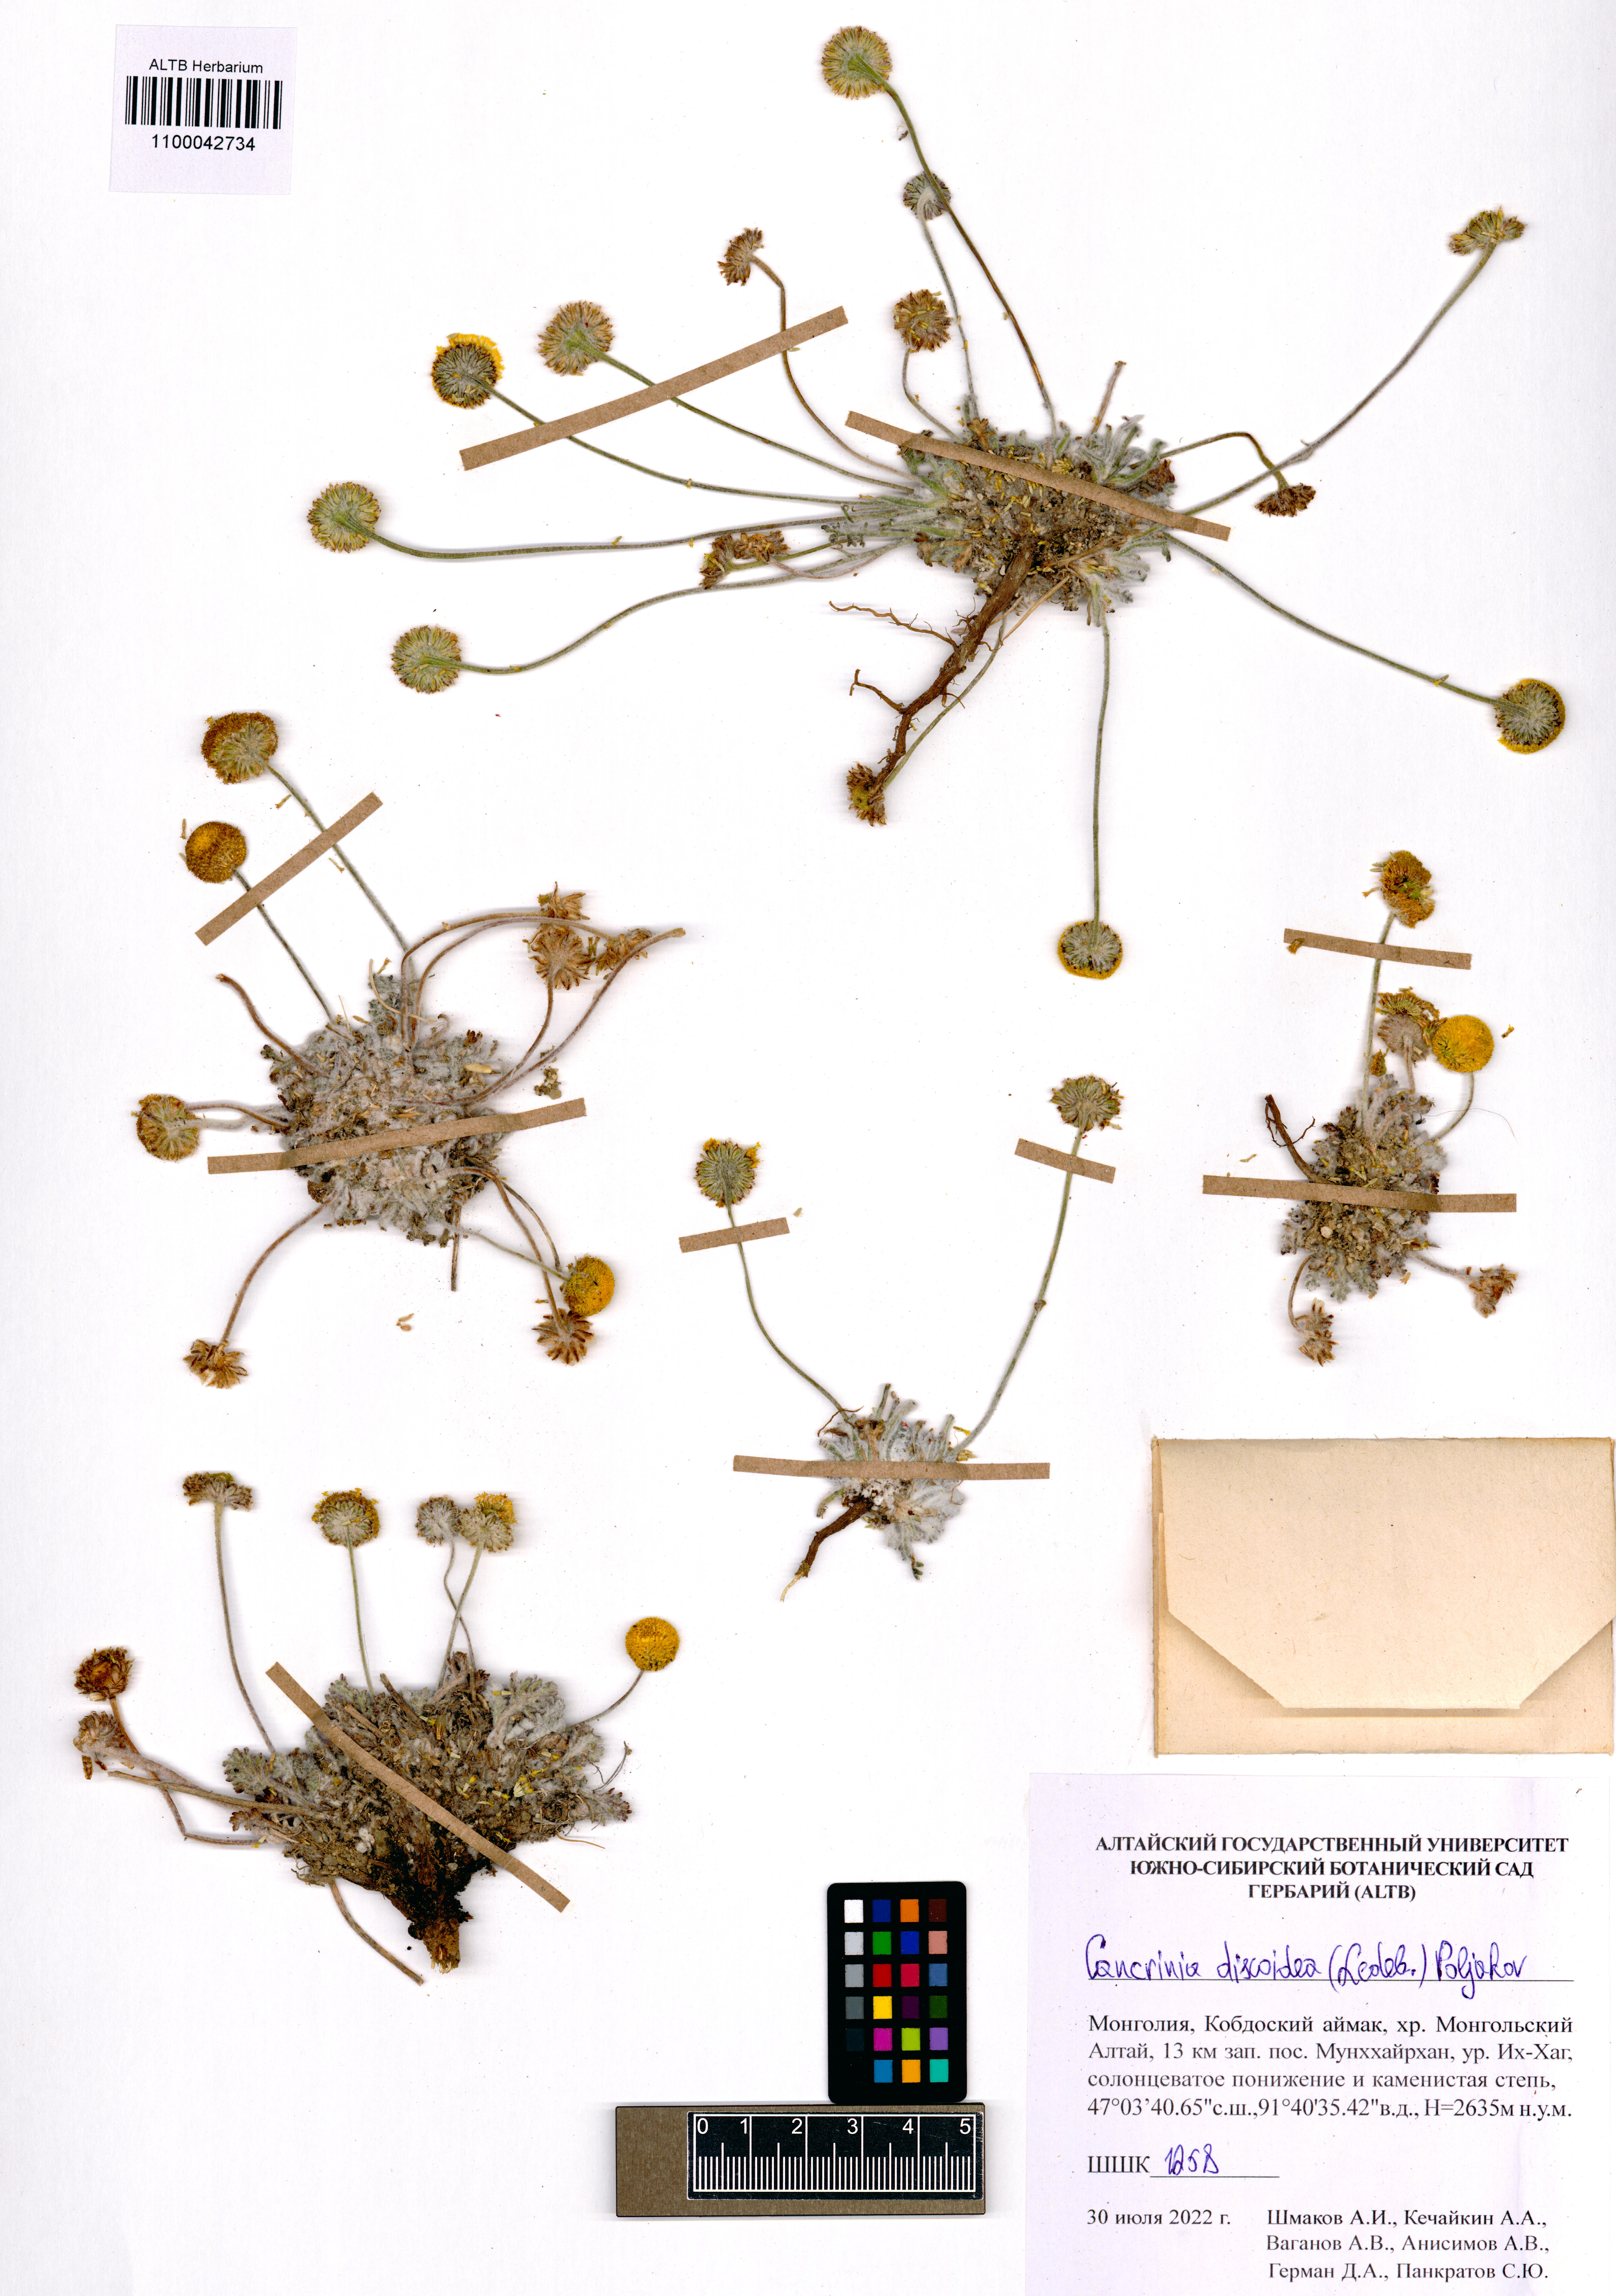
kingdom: Plantae
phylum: Tracheophyta
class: Magnoliopsida
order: Asterales
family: Asteraceae
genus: Cancrinia
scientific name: Cancrinia discoidea
